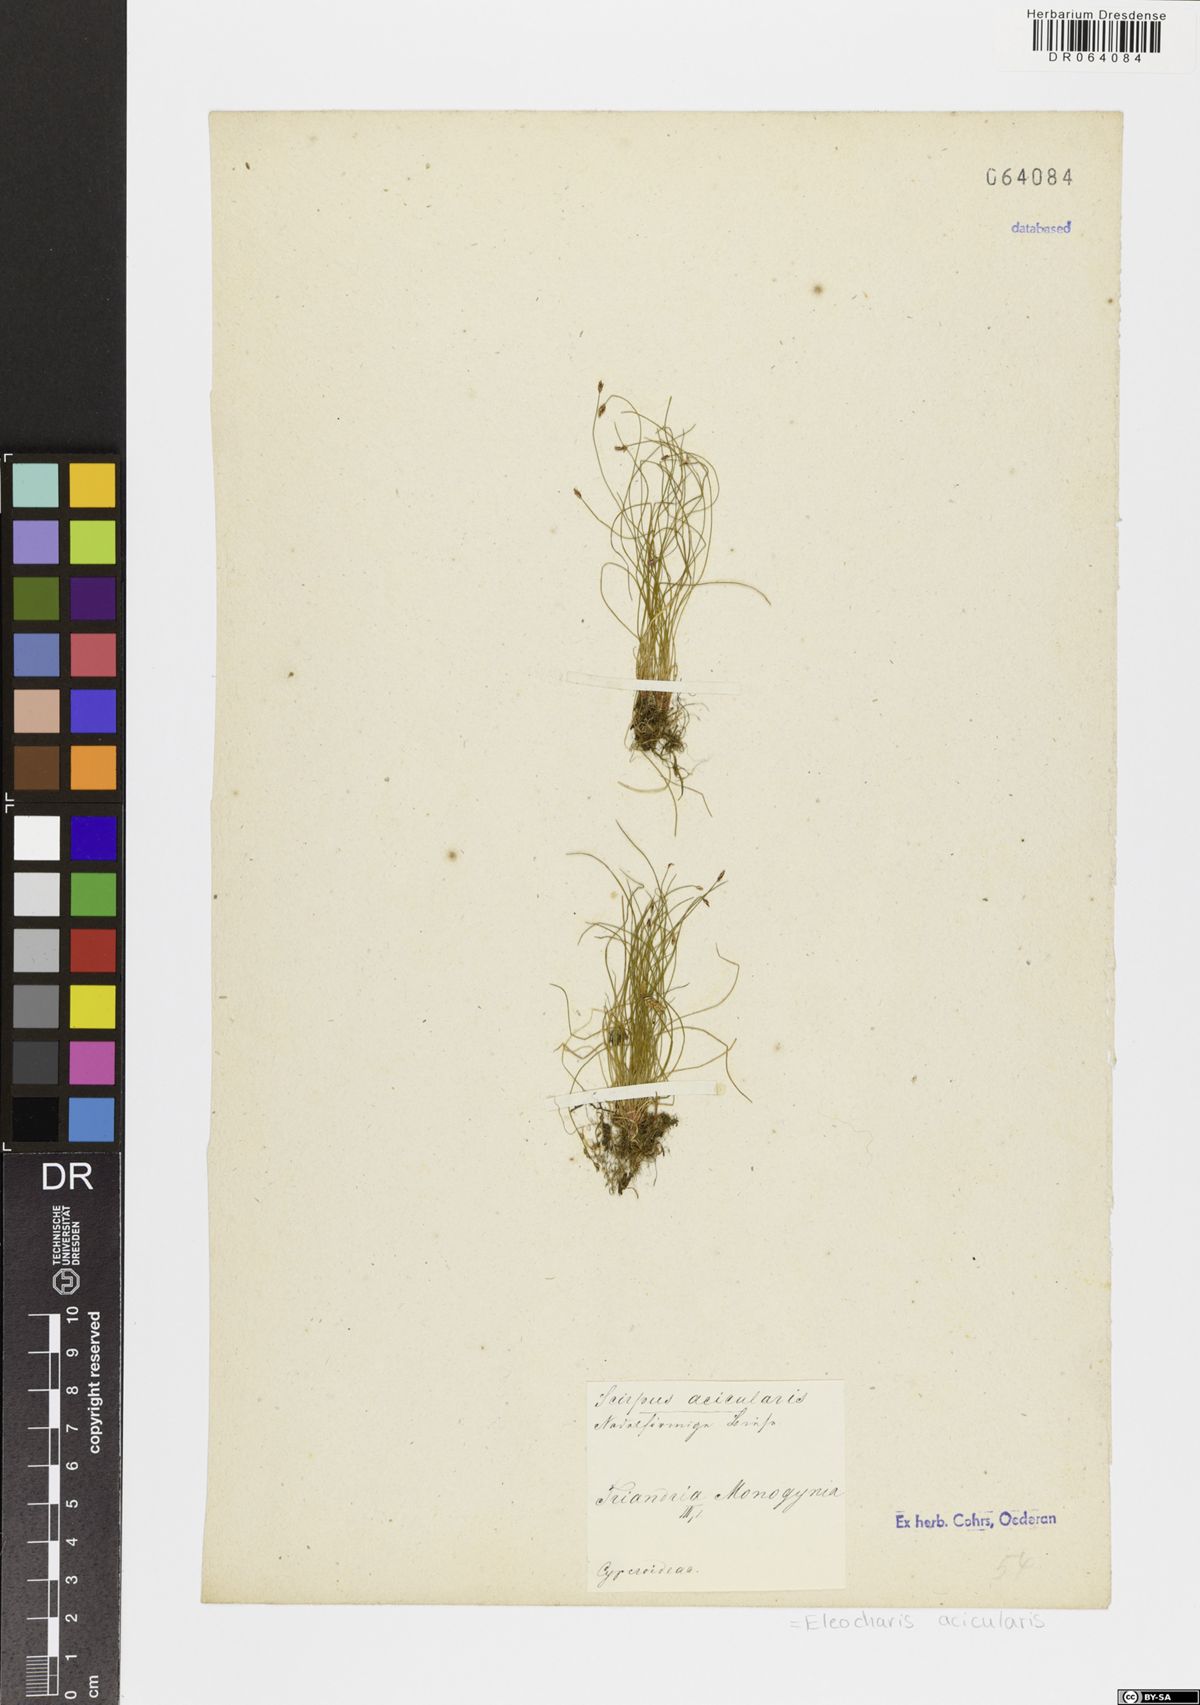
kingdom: Plantae
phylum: Tracheophyta
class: Liliopsida
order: Poales
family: Cyperaceae
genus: Eleocharis
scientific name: Eleocharis acicularis
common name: Needle spike-rush
